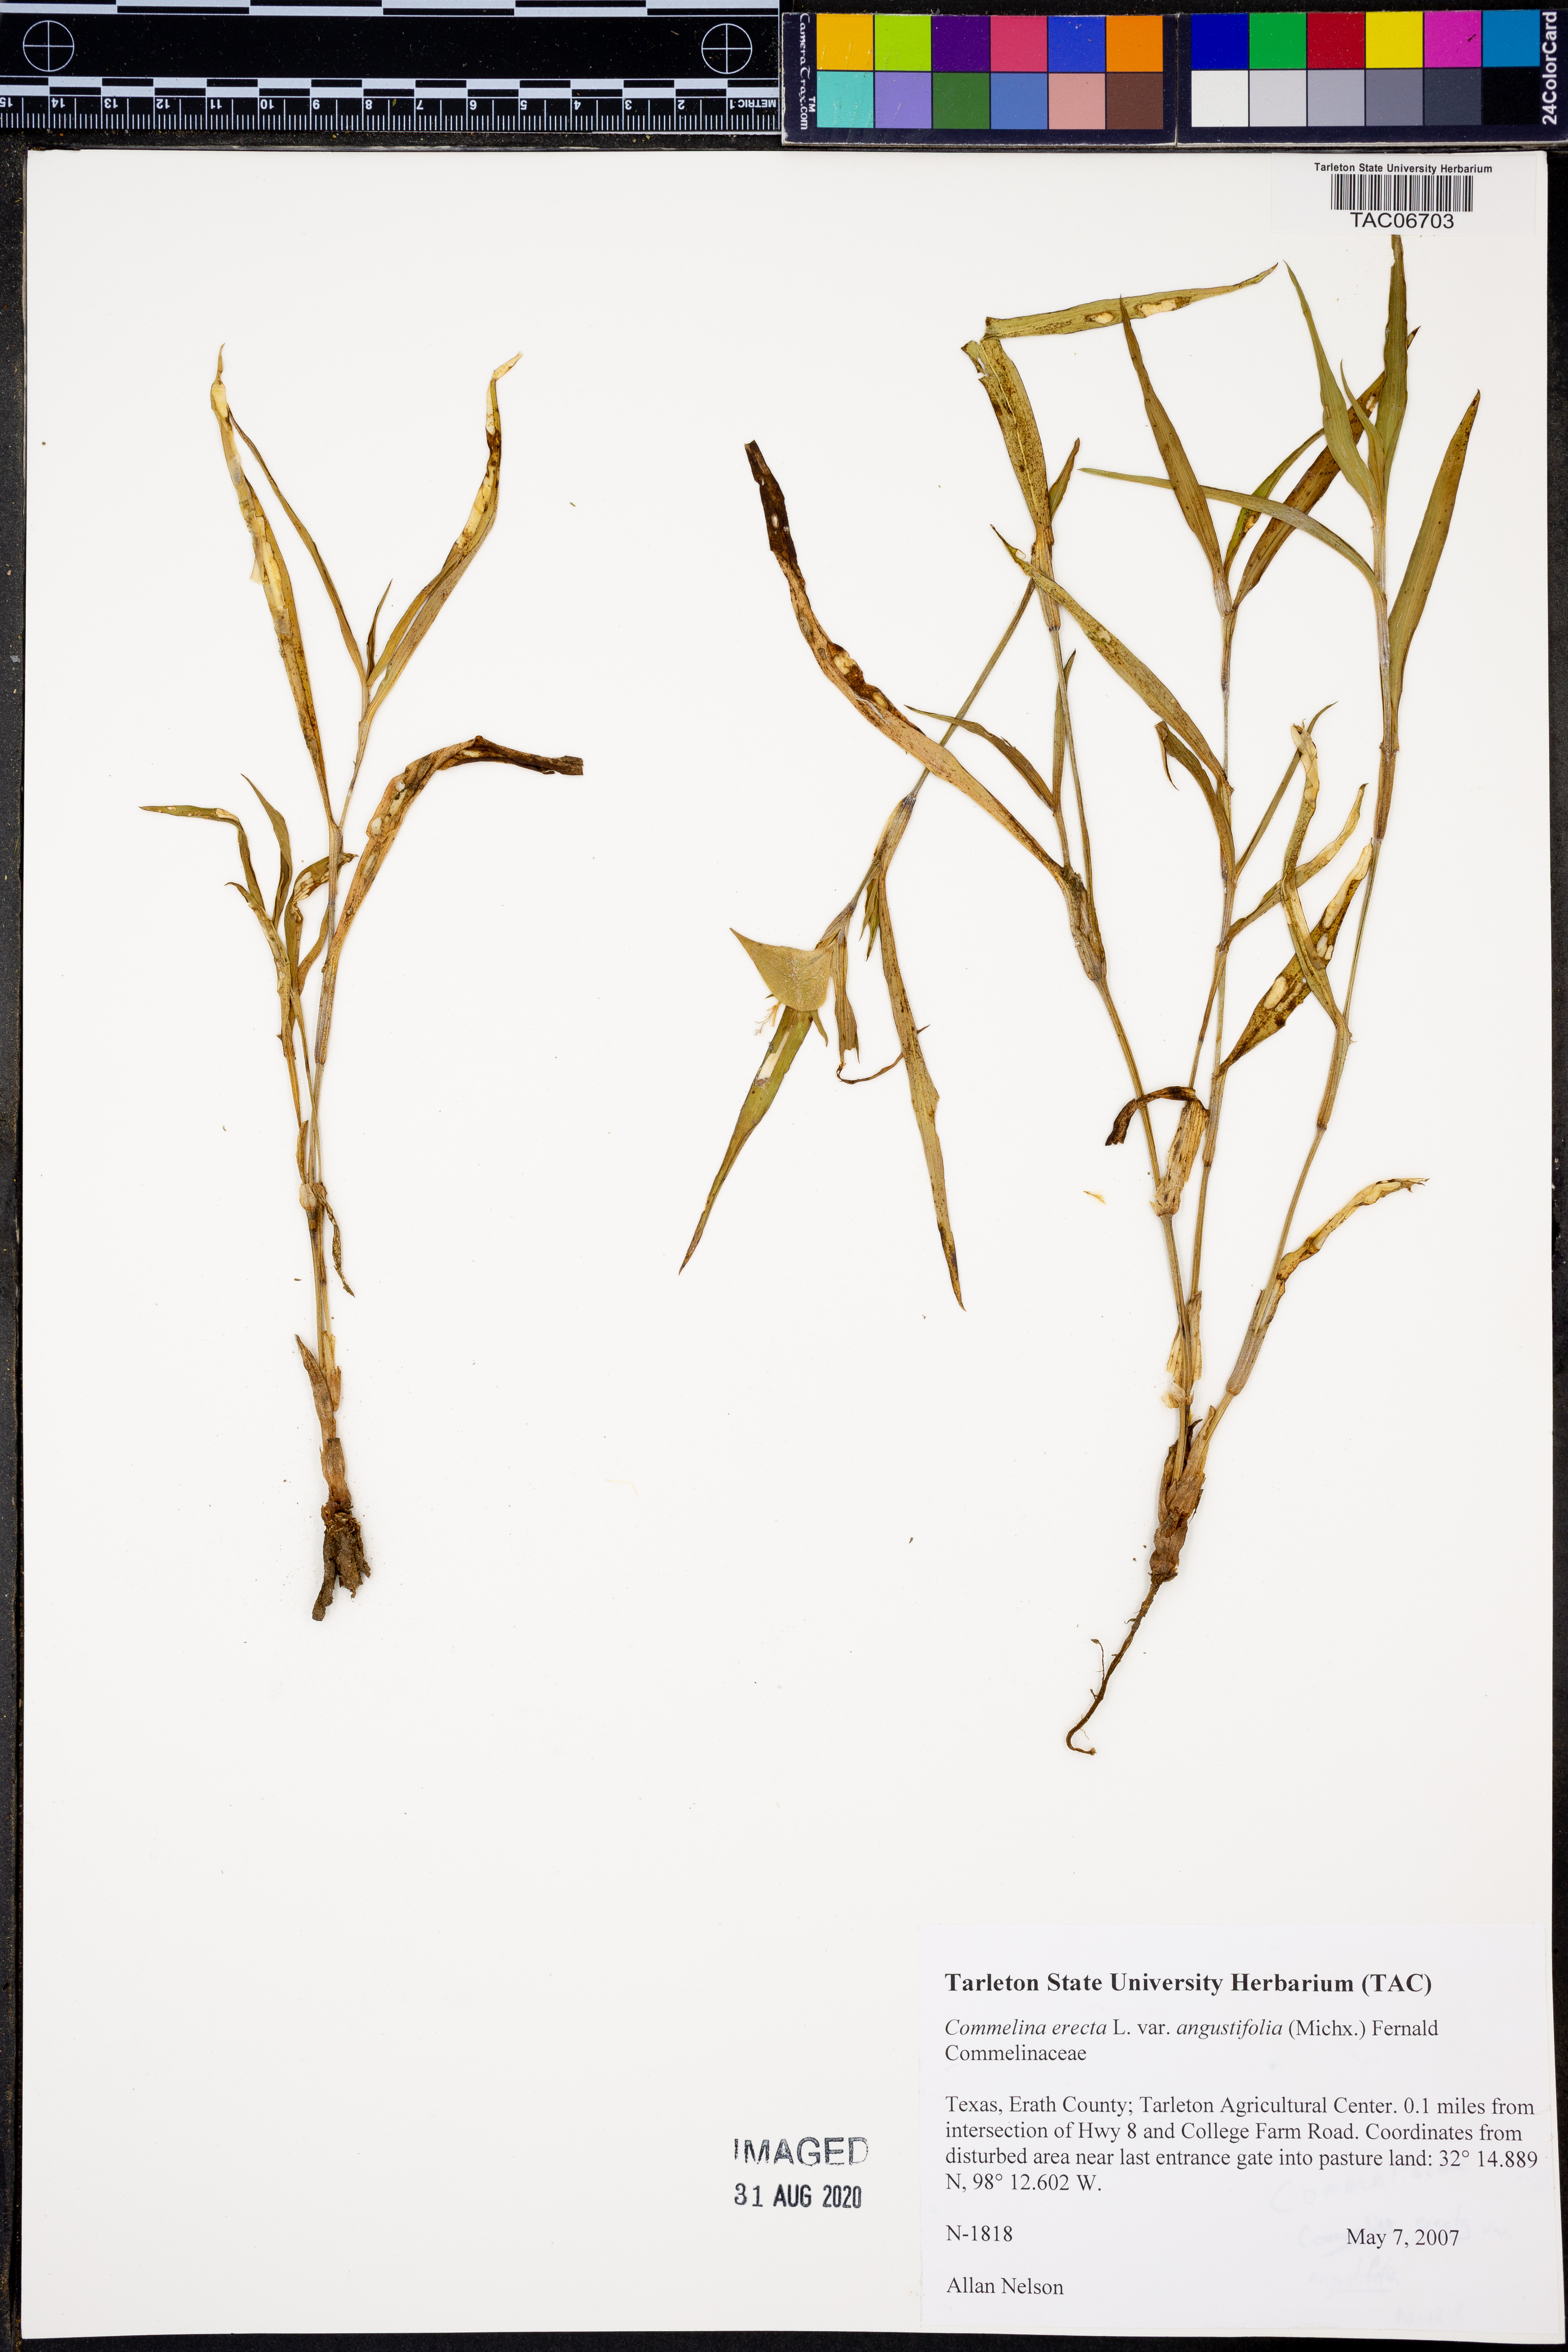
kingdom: Plantae
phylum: Tracheophyta
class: Liliopsida
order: Commelinales
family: Commelinaceae
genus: Commelina
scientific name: Commelina erecta
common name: Blousel blommetjie
